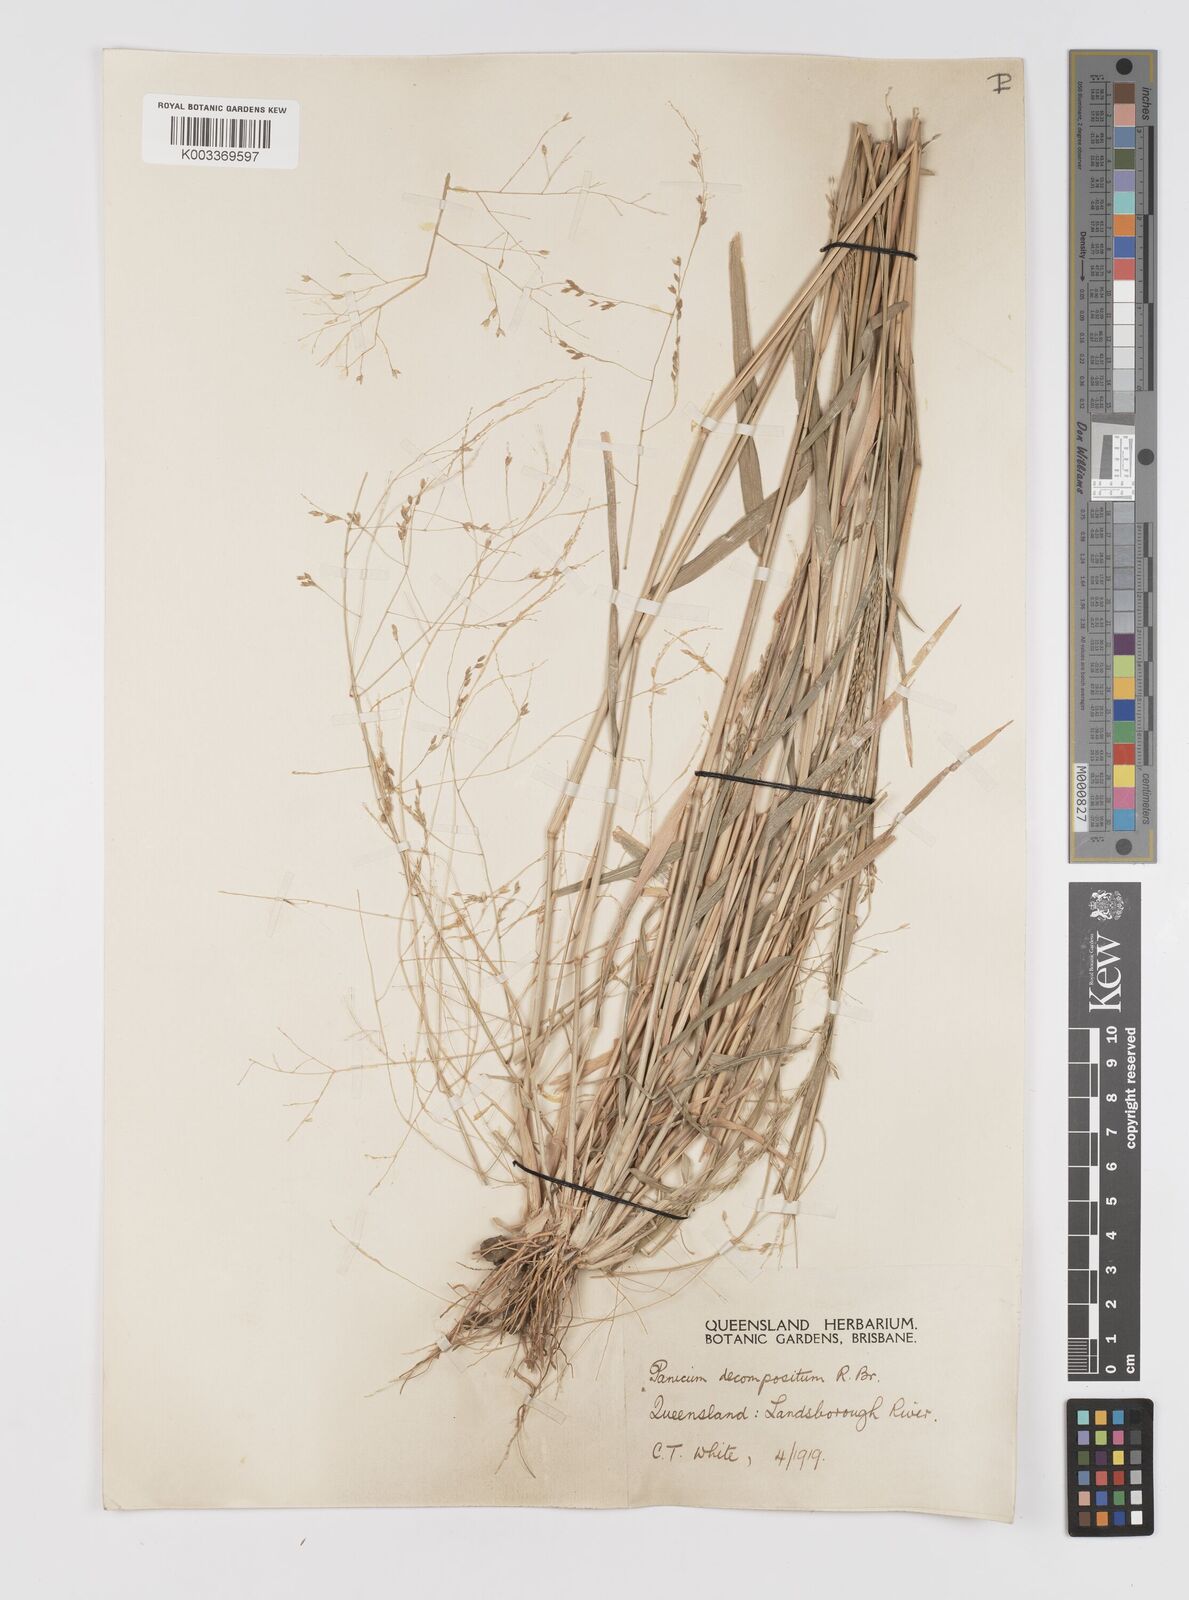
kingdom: Plantae
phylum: Tracheophyta
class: Liliopsida
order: Poales
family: Poaceae
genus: Panicum
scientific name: Panicum decompositum
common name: Australian millet
